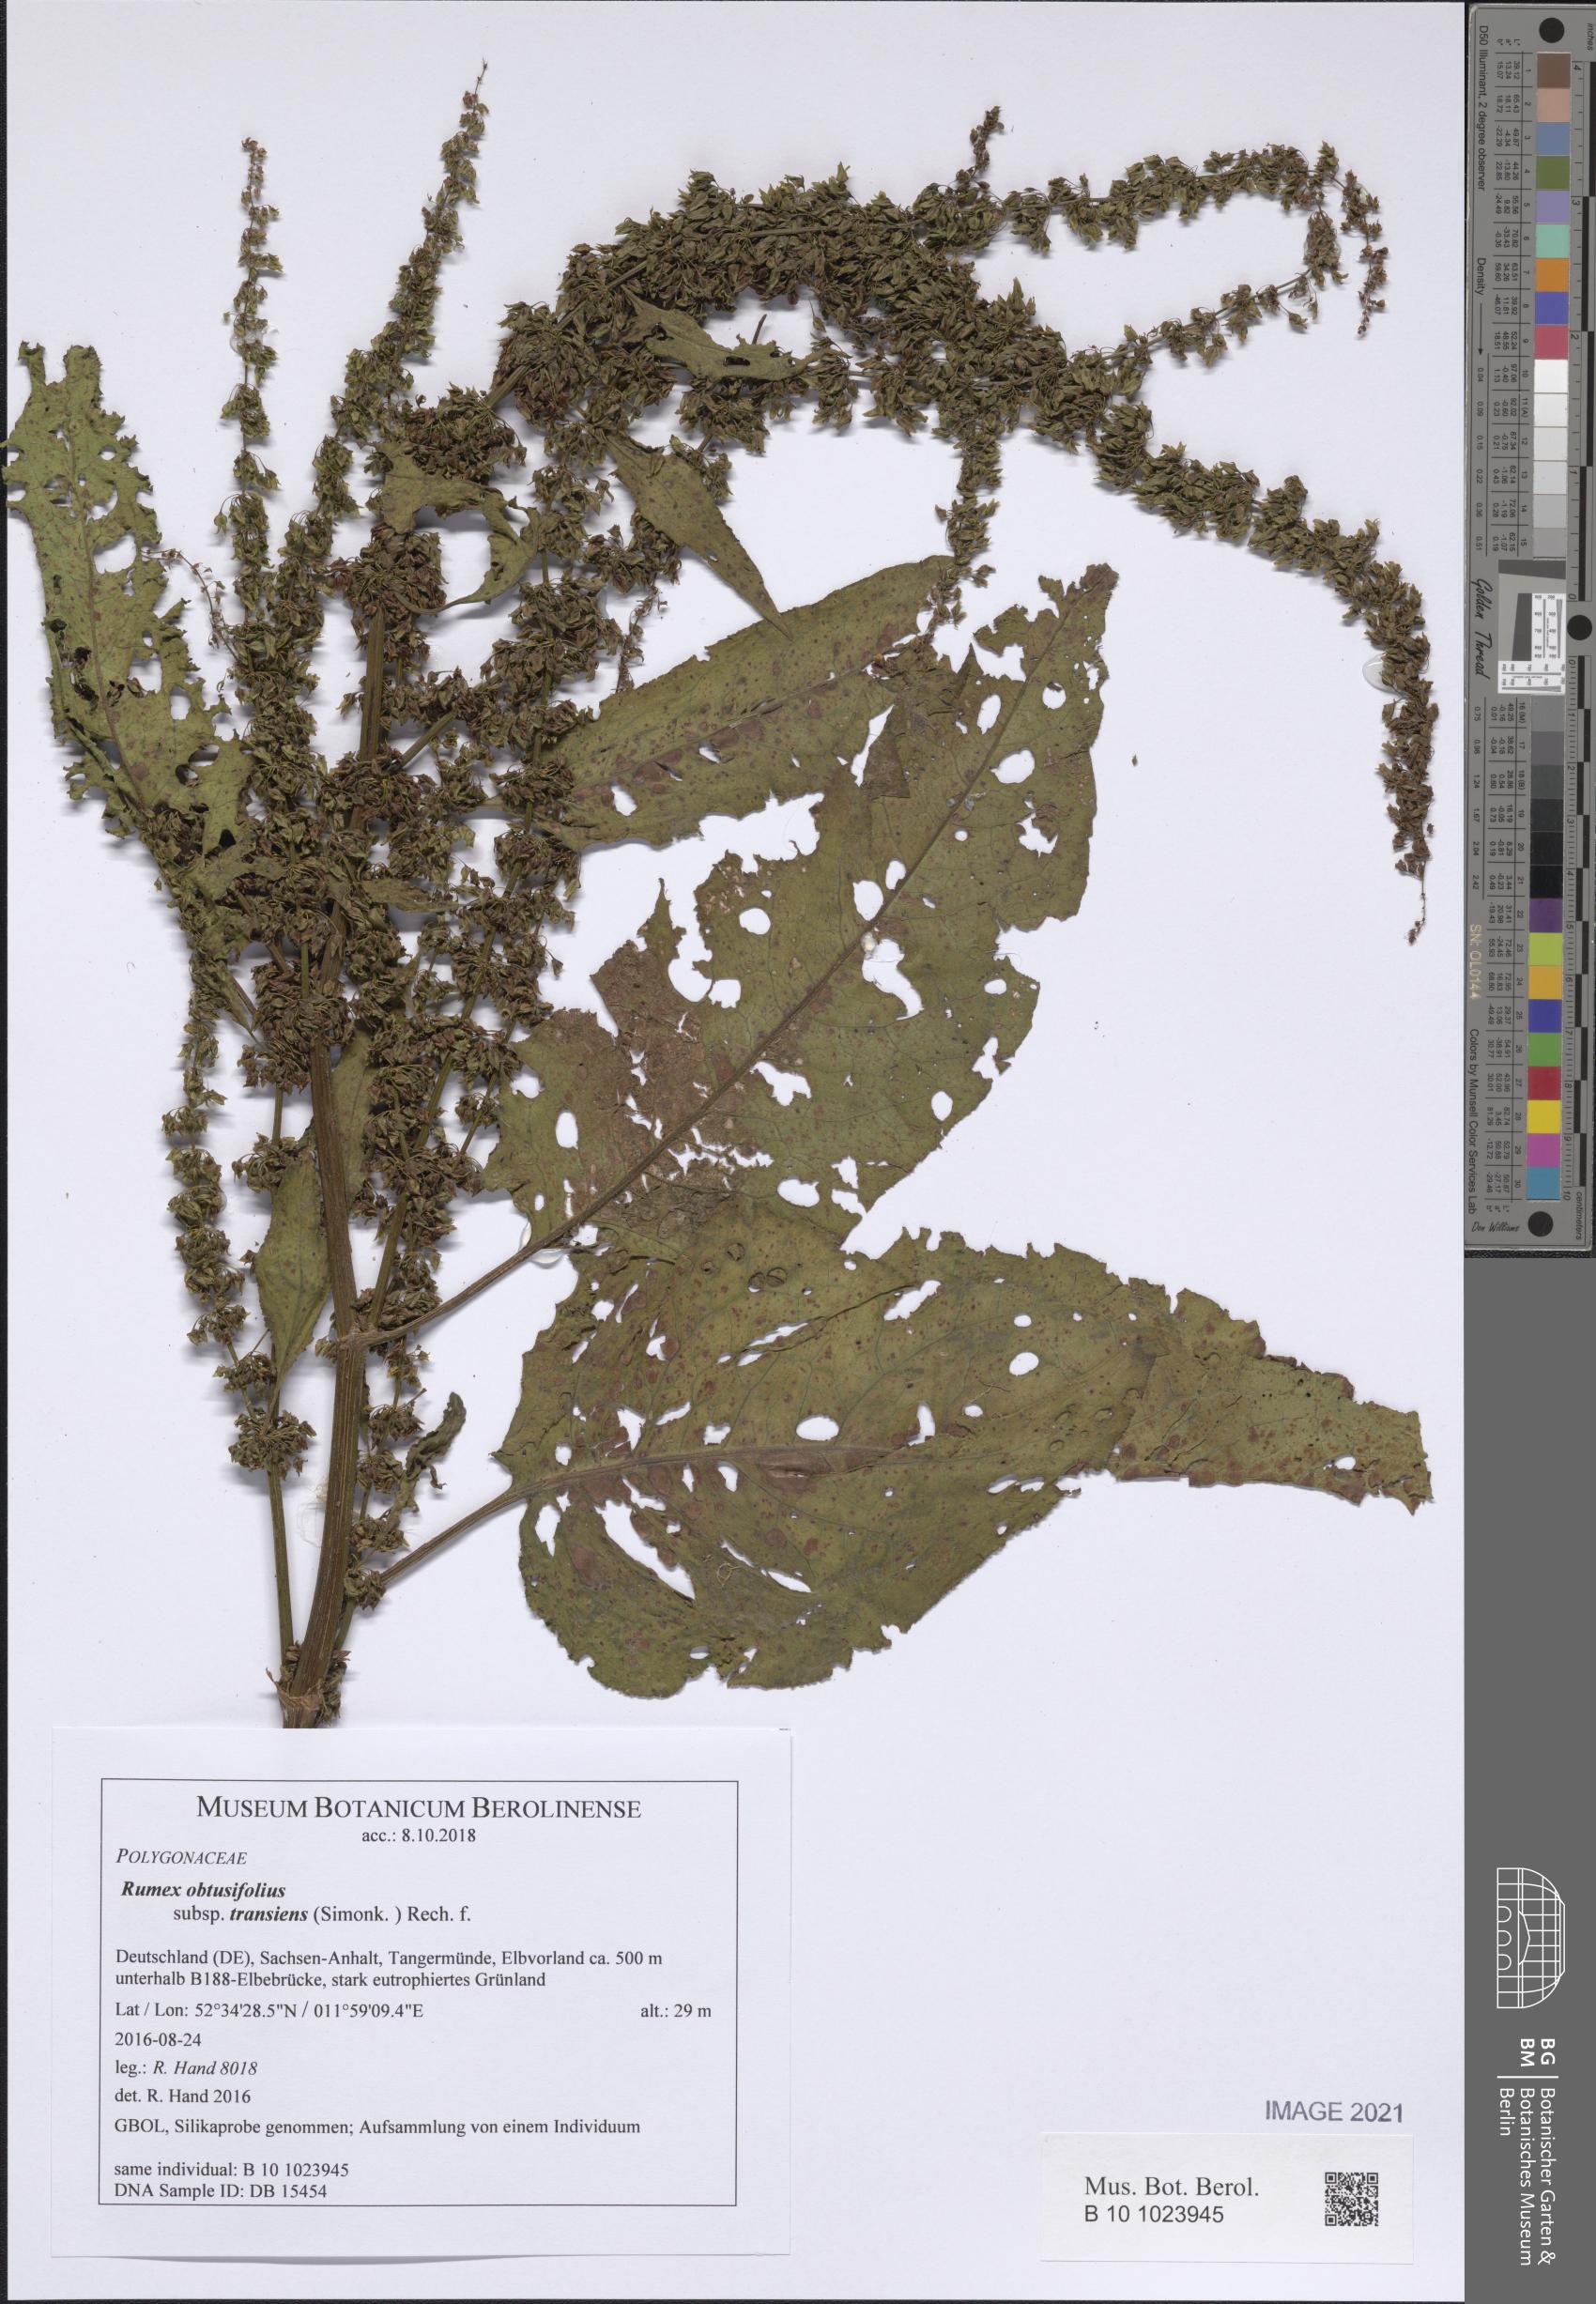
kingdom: Plantae
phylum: Tracheophyta
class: Magnoliopsida
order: Caryophyllales
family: Polygonaceae
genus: Rumex
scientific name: Rumex obtusifolius
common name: Bitter dock
